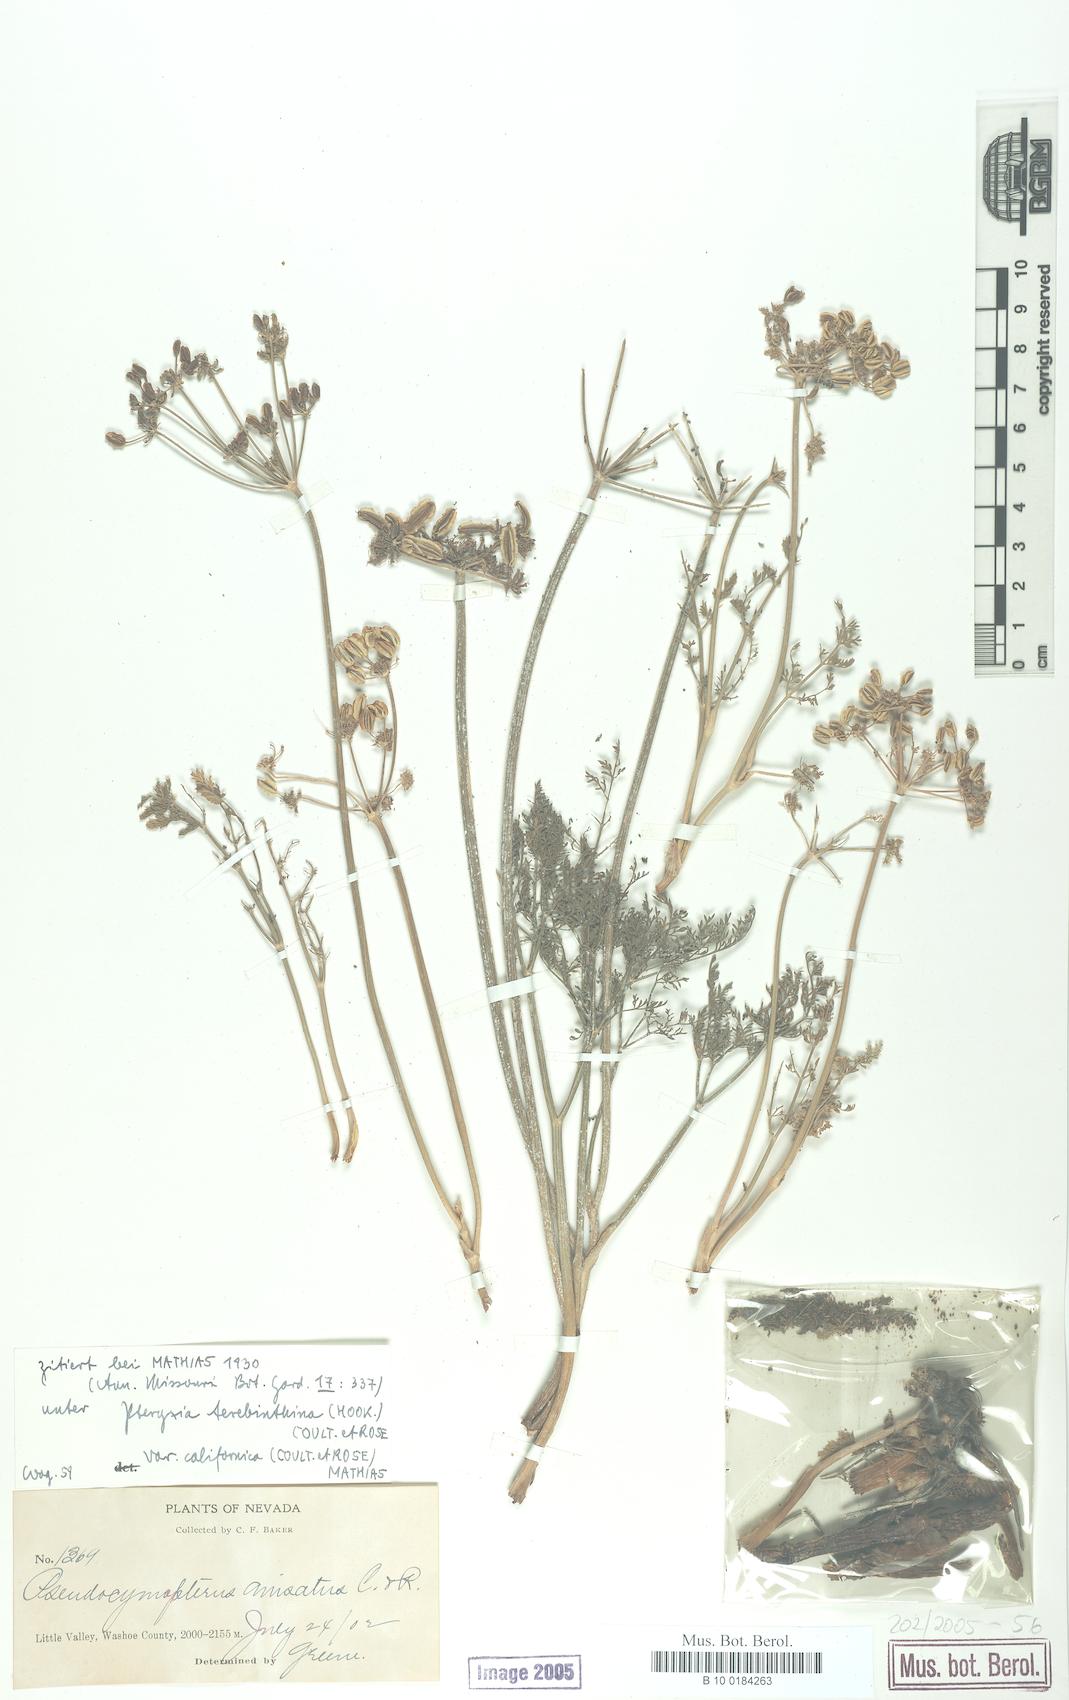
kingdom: Plantae
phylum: Tracheophyta
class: Magnoliopsida
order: Apiales
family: Apiaceae
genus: Cymopterus
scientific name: Cymopterus anisatus
